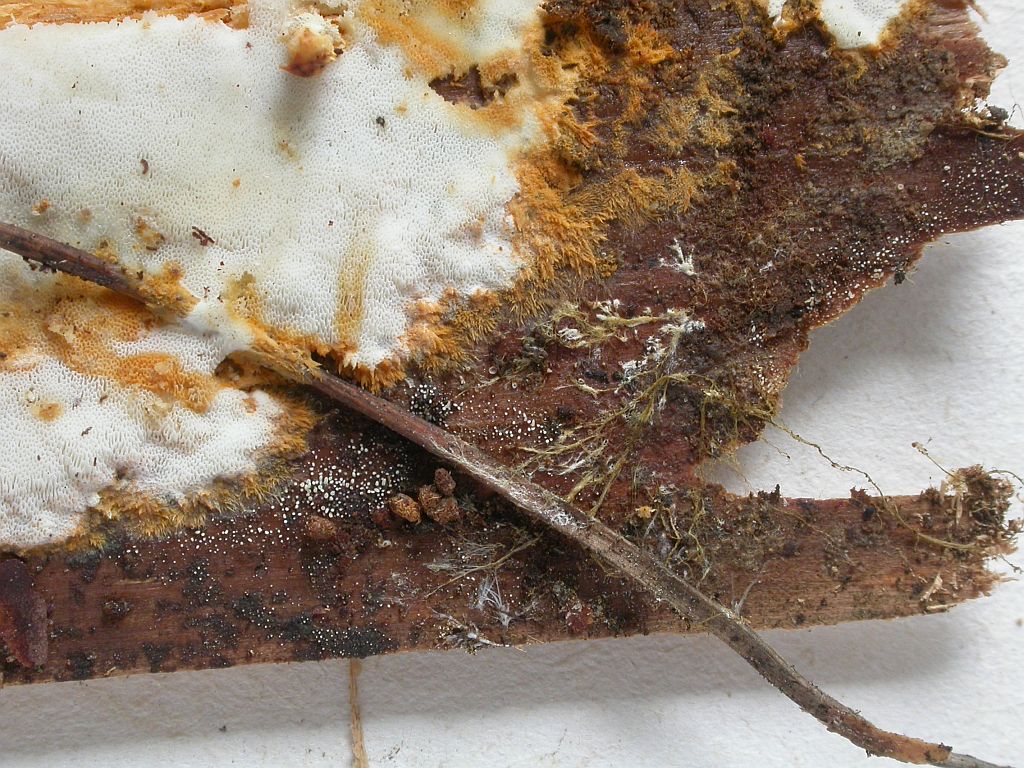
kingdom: Fungi
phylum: Basidiomycota
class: Agaricomycetes
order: Agaricales
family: Clavariaceae
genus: Mucronella
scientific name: Mucronella calva
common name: hvid hængepig
